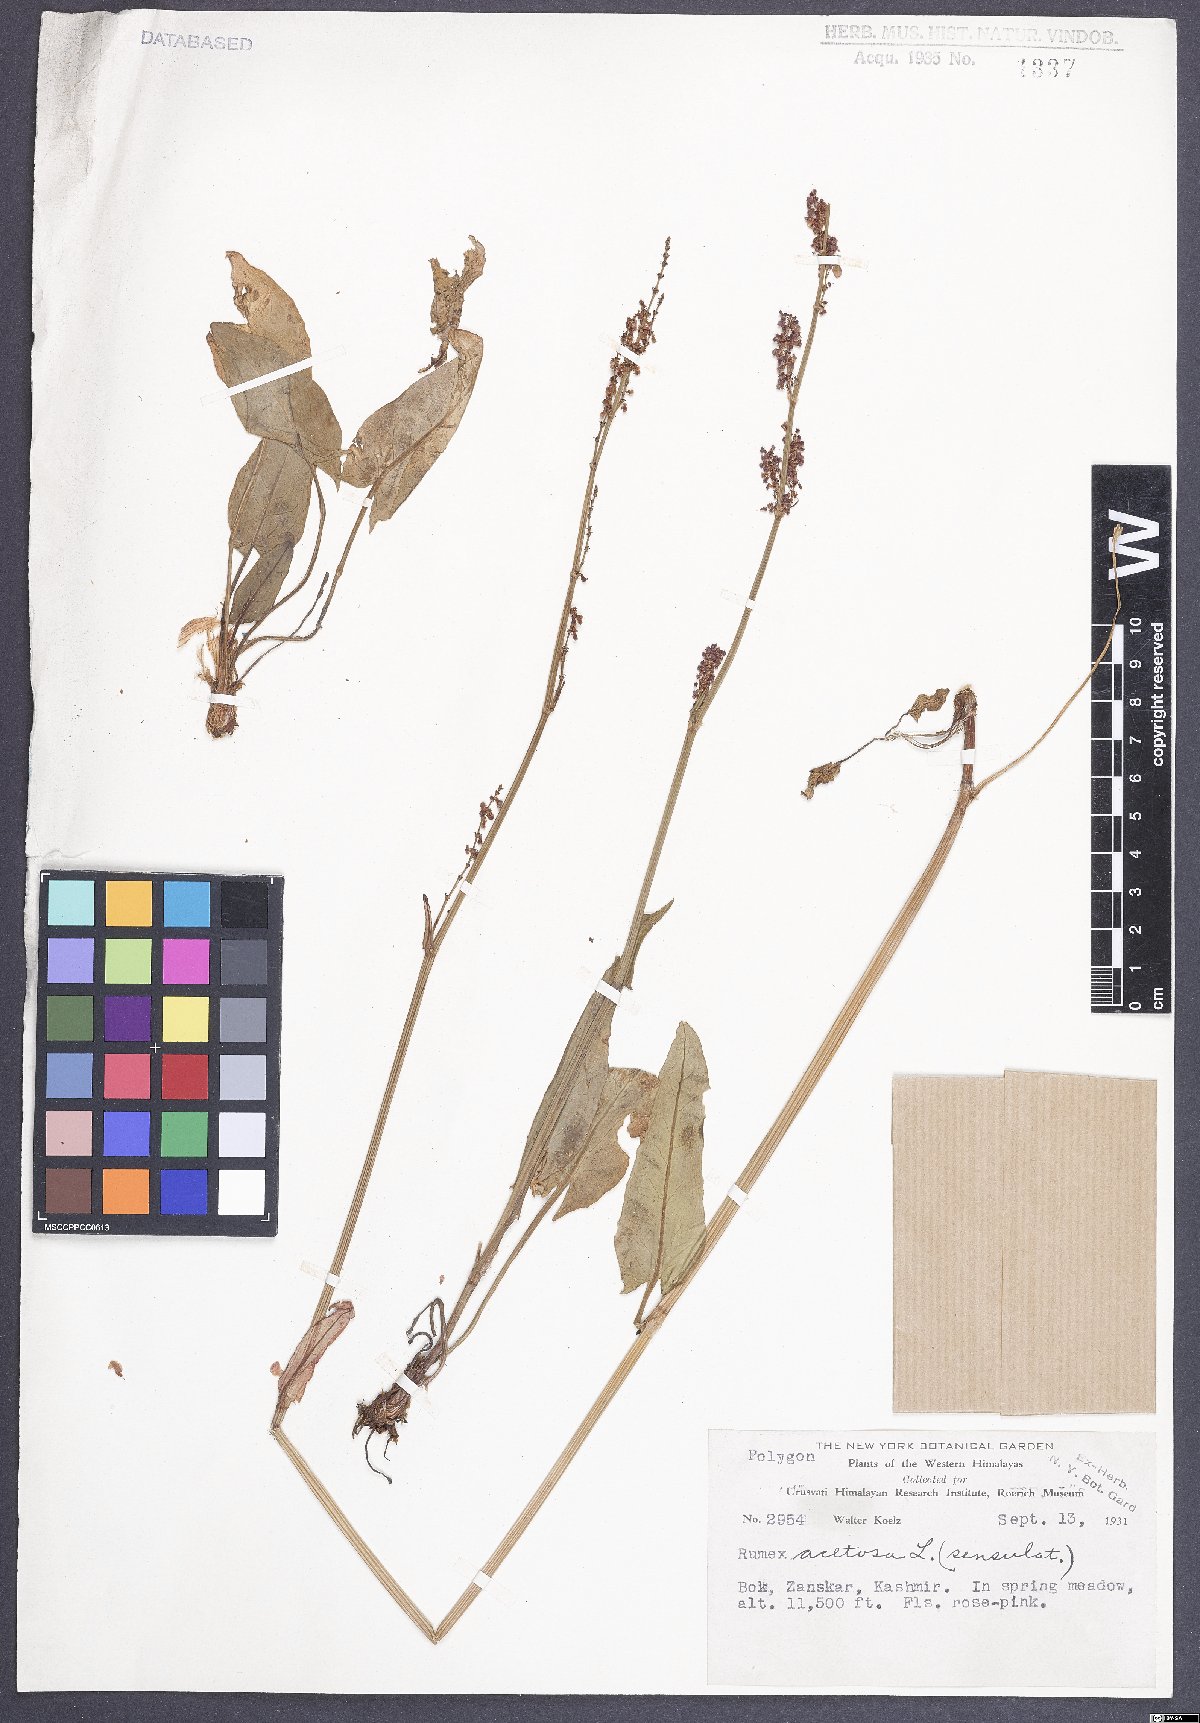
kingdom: Plantae
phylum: Tracheophyta
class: Magnoliopsida
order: Caryophyllales
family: Polygonaceae
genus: Rumex
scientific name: Rumex acetosa
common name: Garden sorrel
